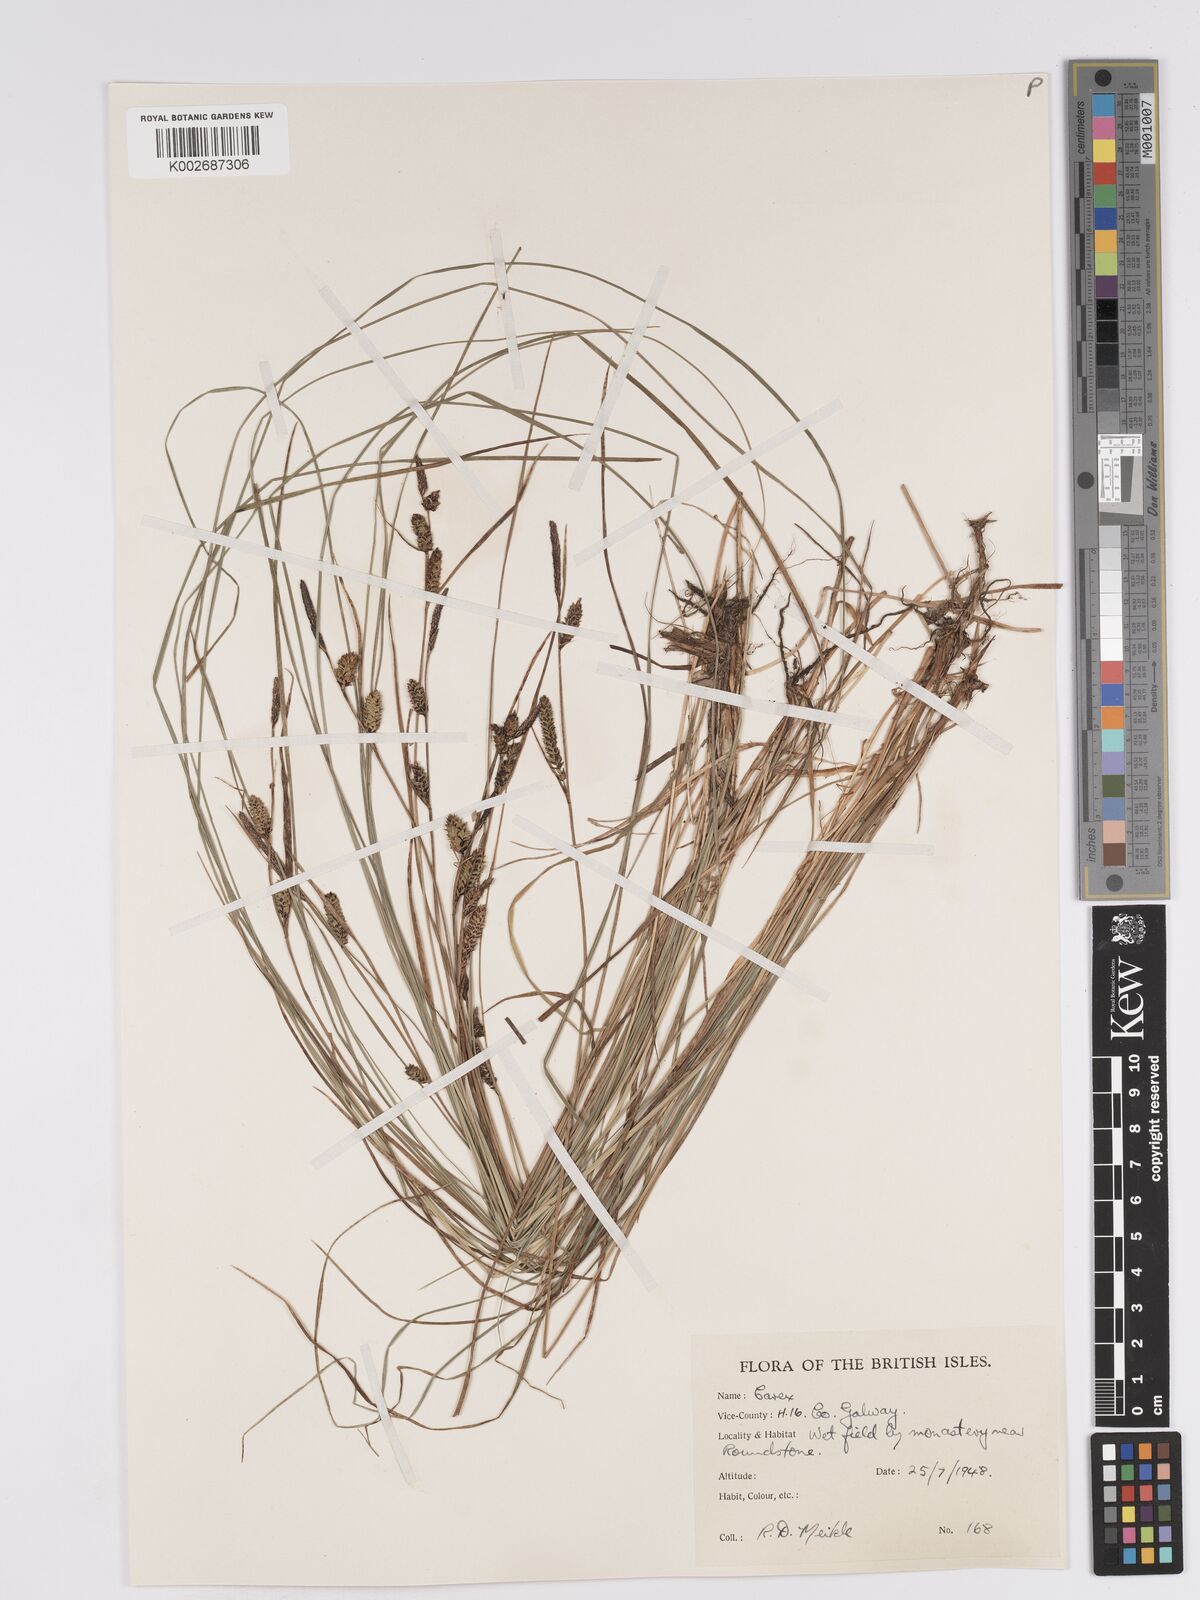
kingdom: Plantae
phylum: Tracheophyta
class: Liliopsida
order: Poales
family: Cyperaceae
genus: Carex
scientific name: Carex nigra
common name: Common sedge
